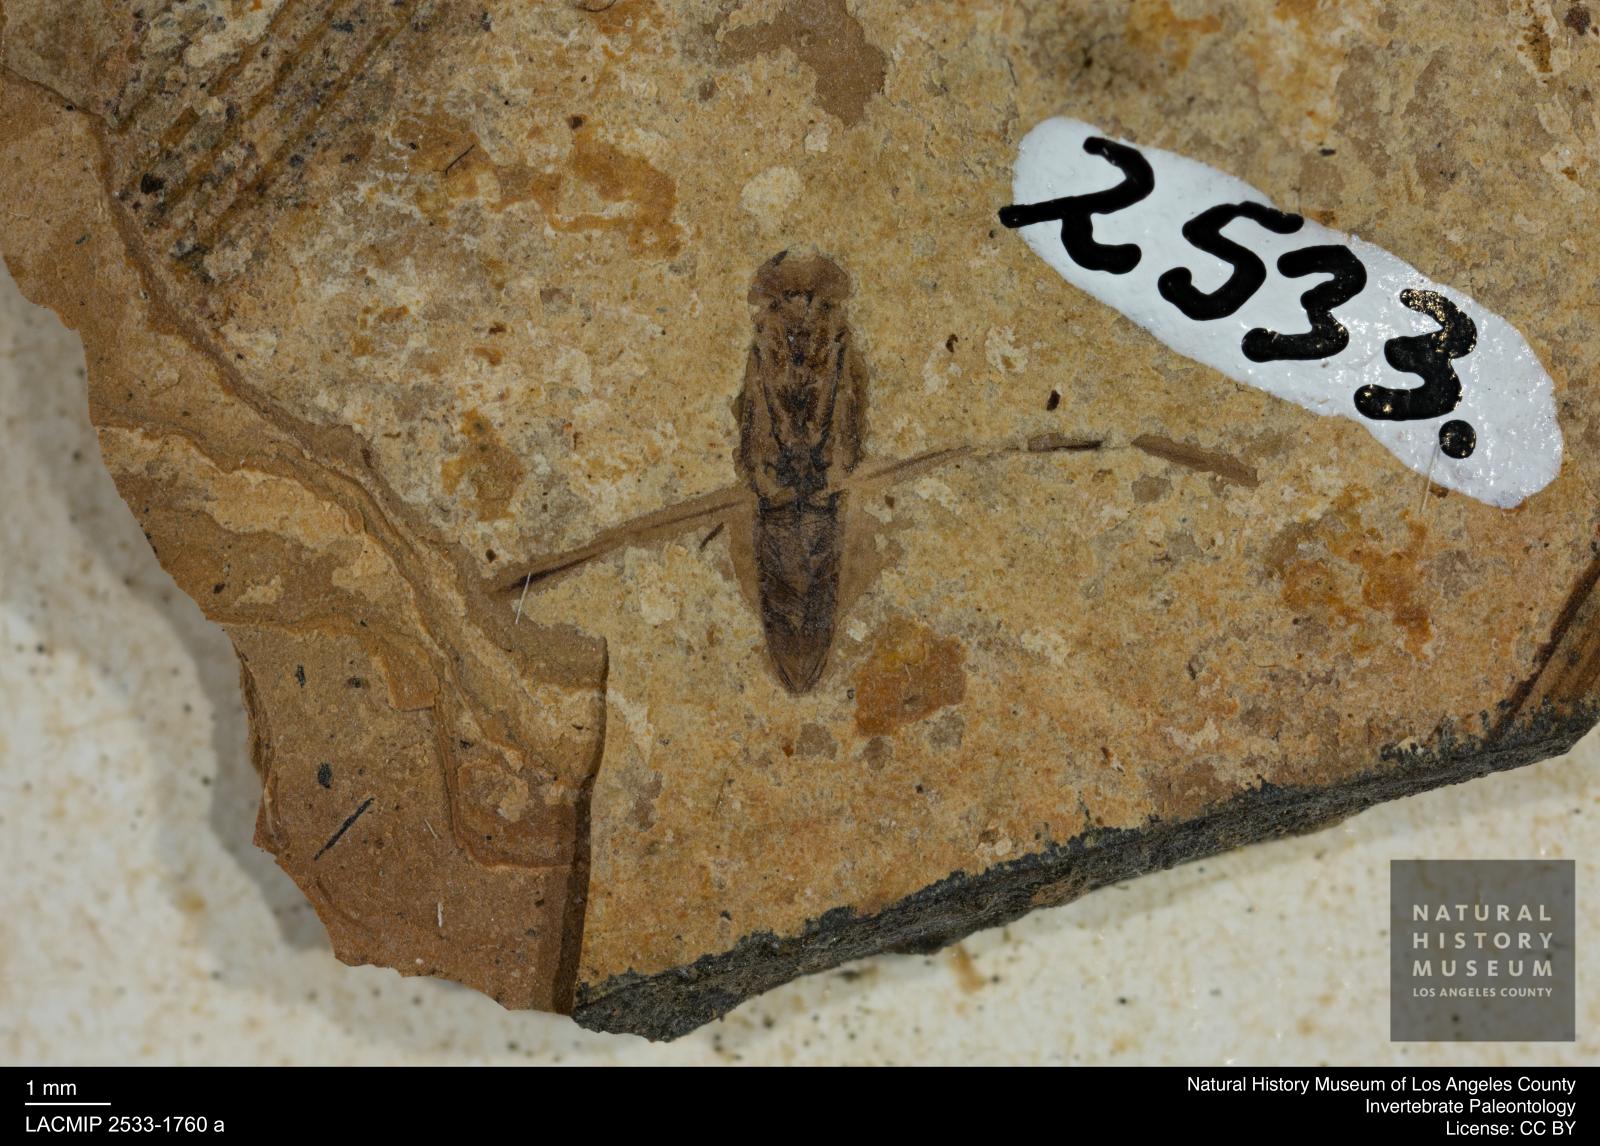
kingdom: Animalia
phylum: Arthropoda
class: Insecta
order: Hemiptera
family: Notonectidae
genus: Notonecta
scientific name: Notonecta
